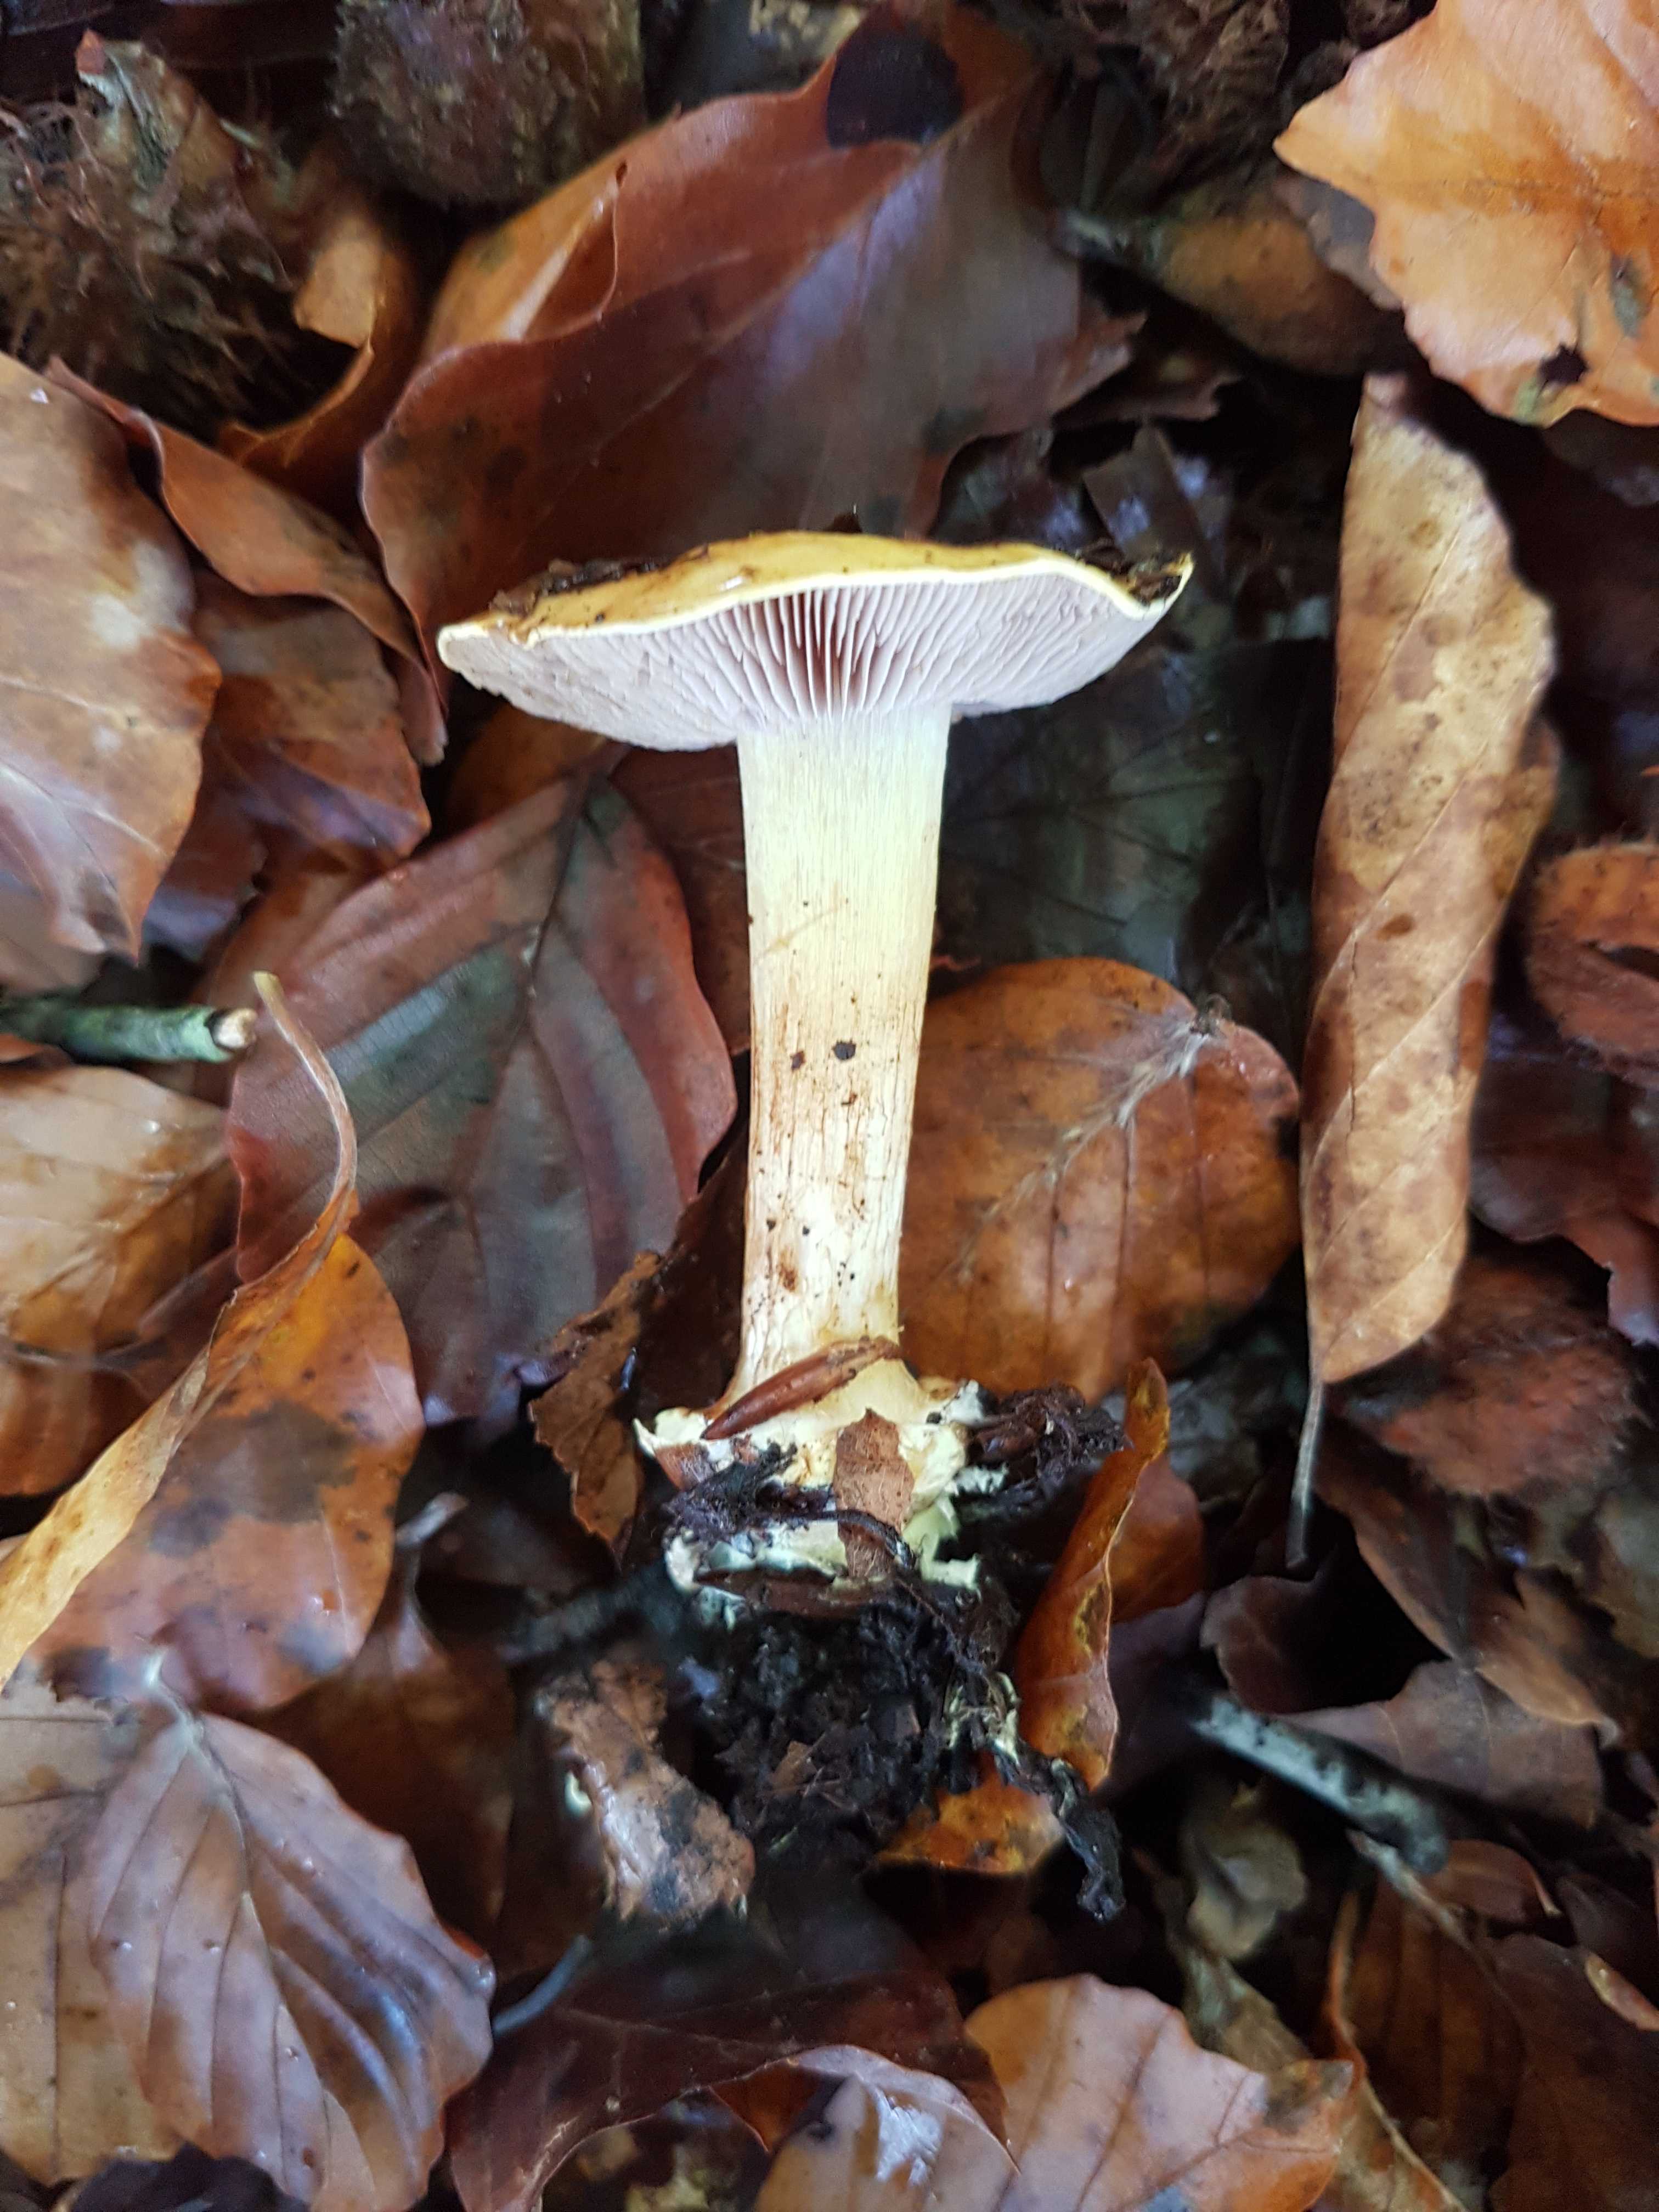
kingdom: Fungi
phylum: Basidiomycota
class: Agaricomycetes
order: Agaricales
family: Cortinariaceae
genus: Calonarius
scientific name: Calonarius callochrous
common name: lillabladet slørhat
